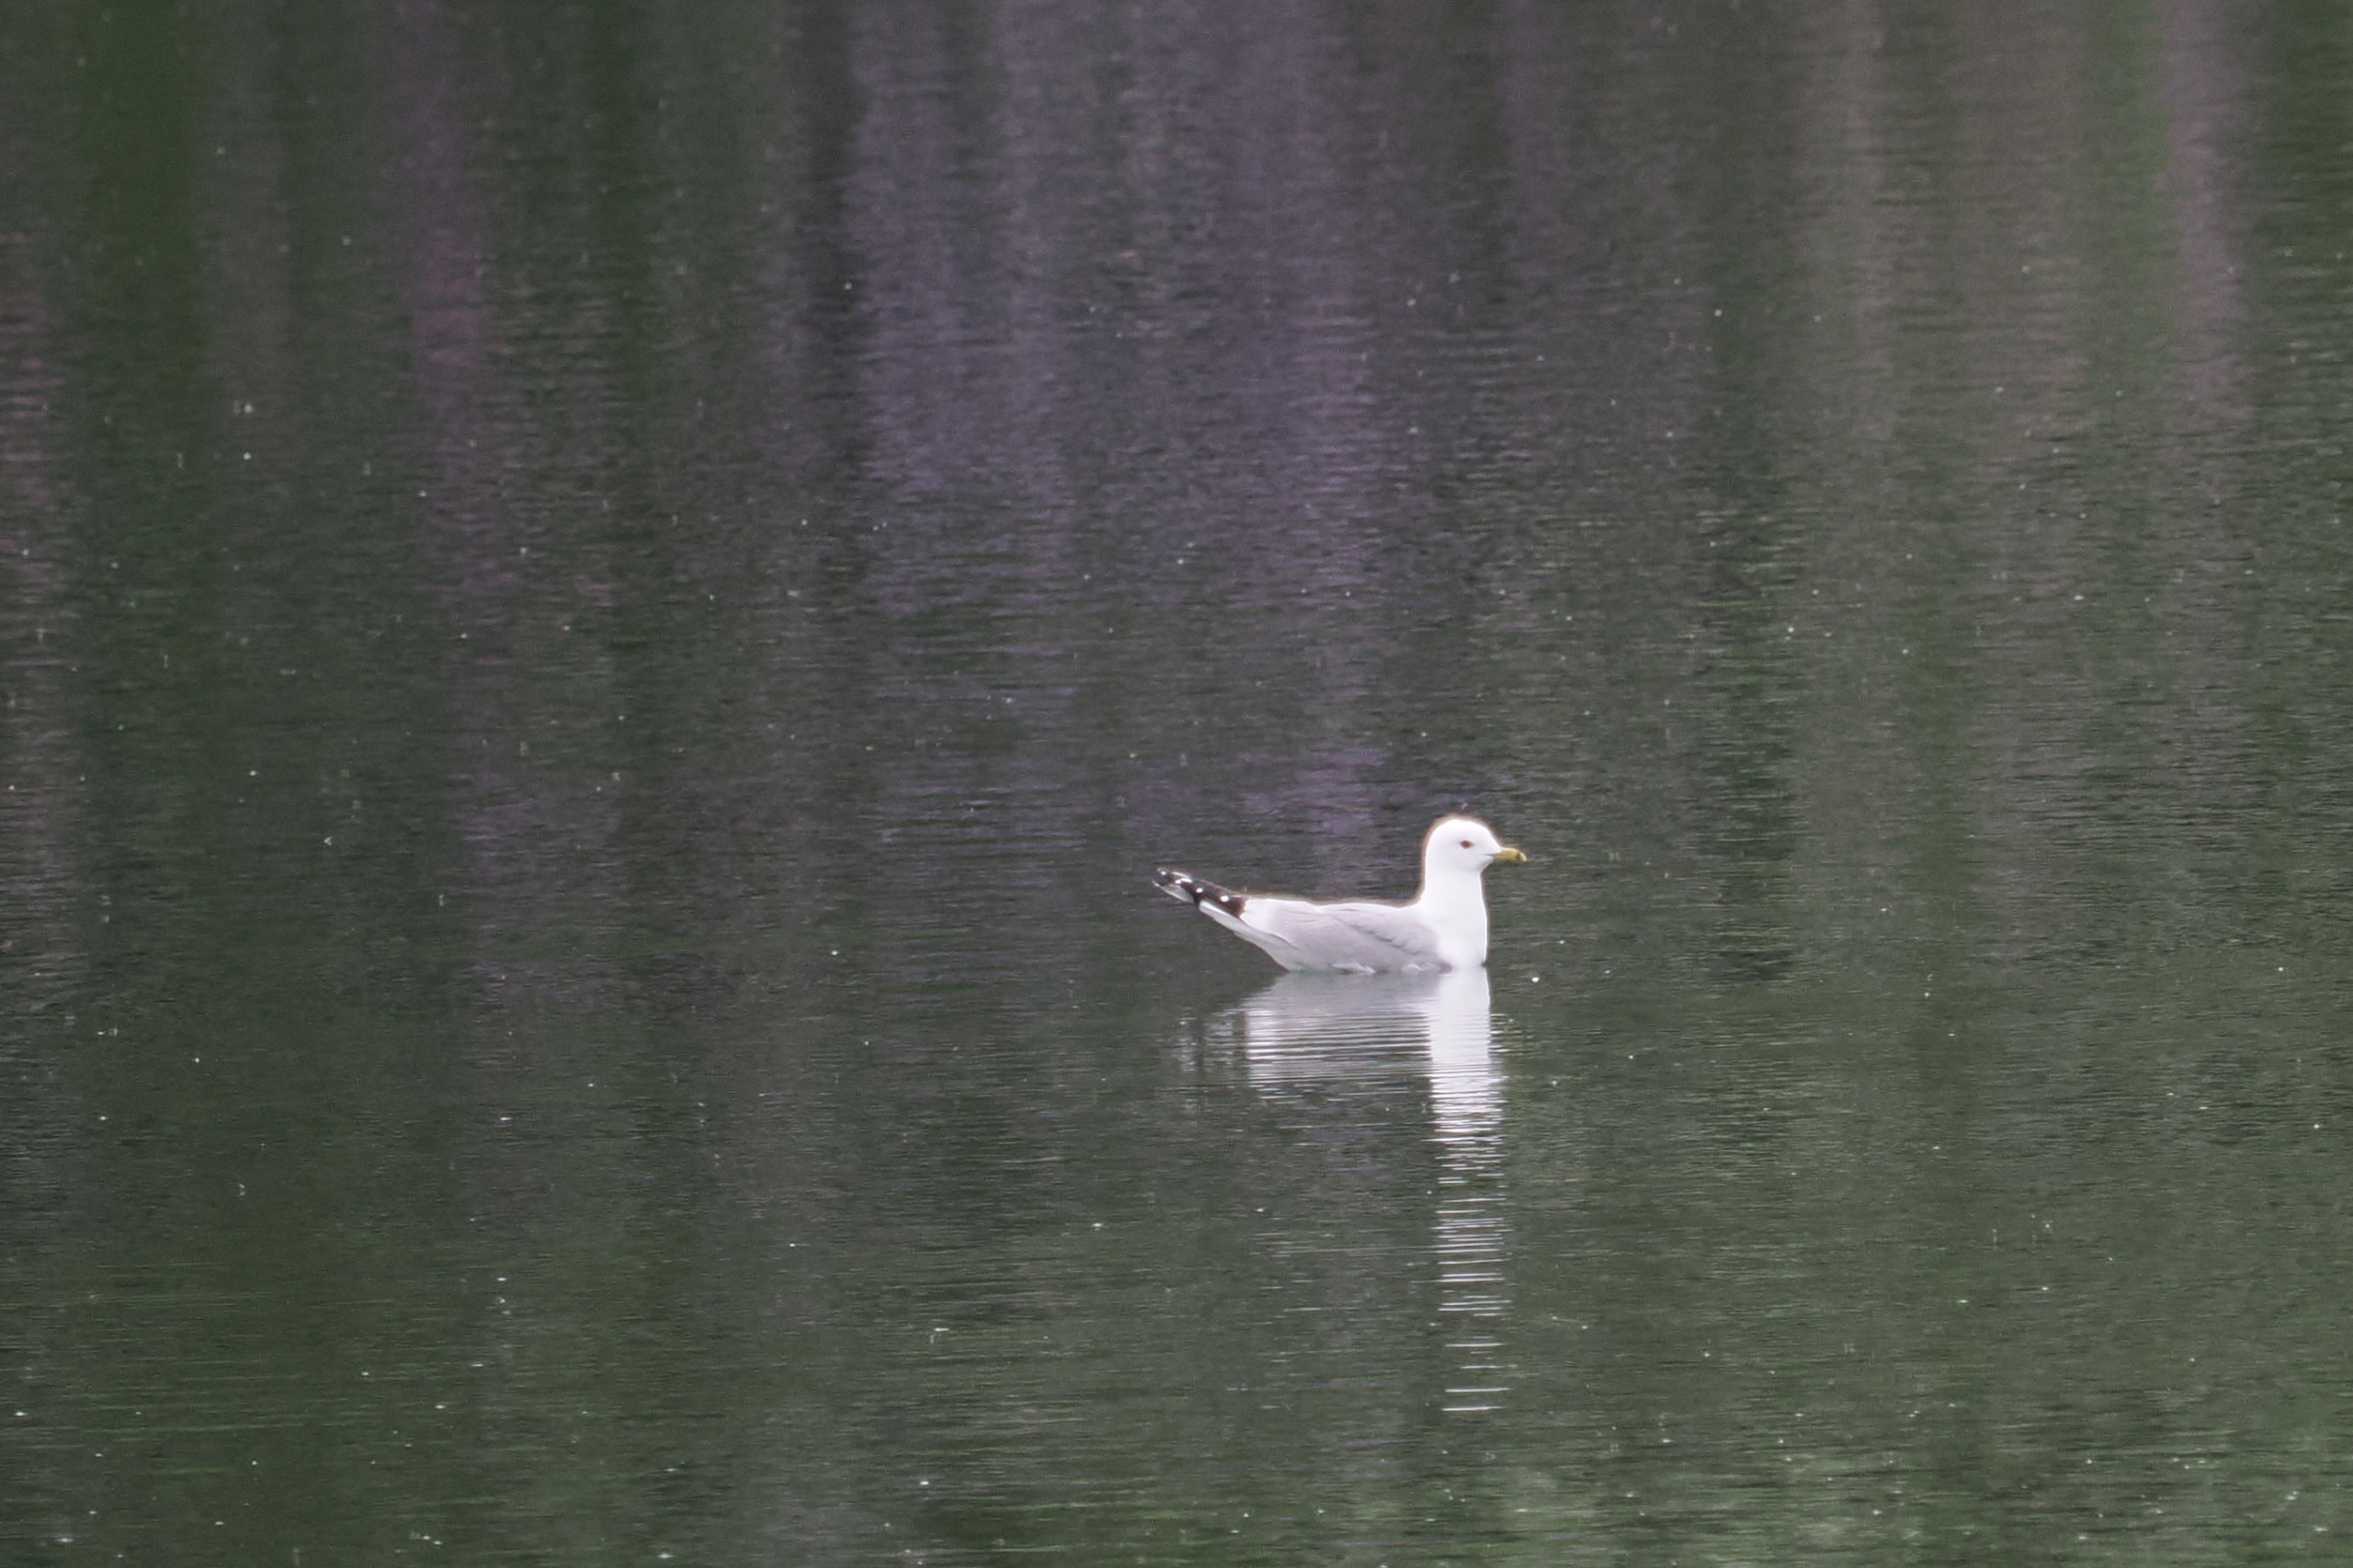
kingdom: Animalia
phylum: Chordata
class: Aves
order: Charadriiformes
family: Laridae
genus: Larus
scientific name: Larus canus
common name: Stormmåge
